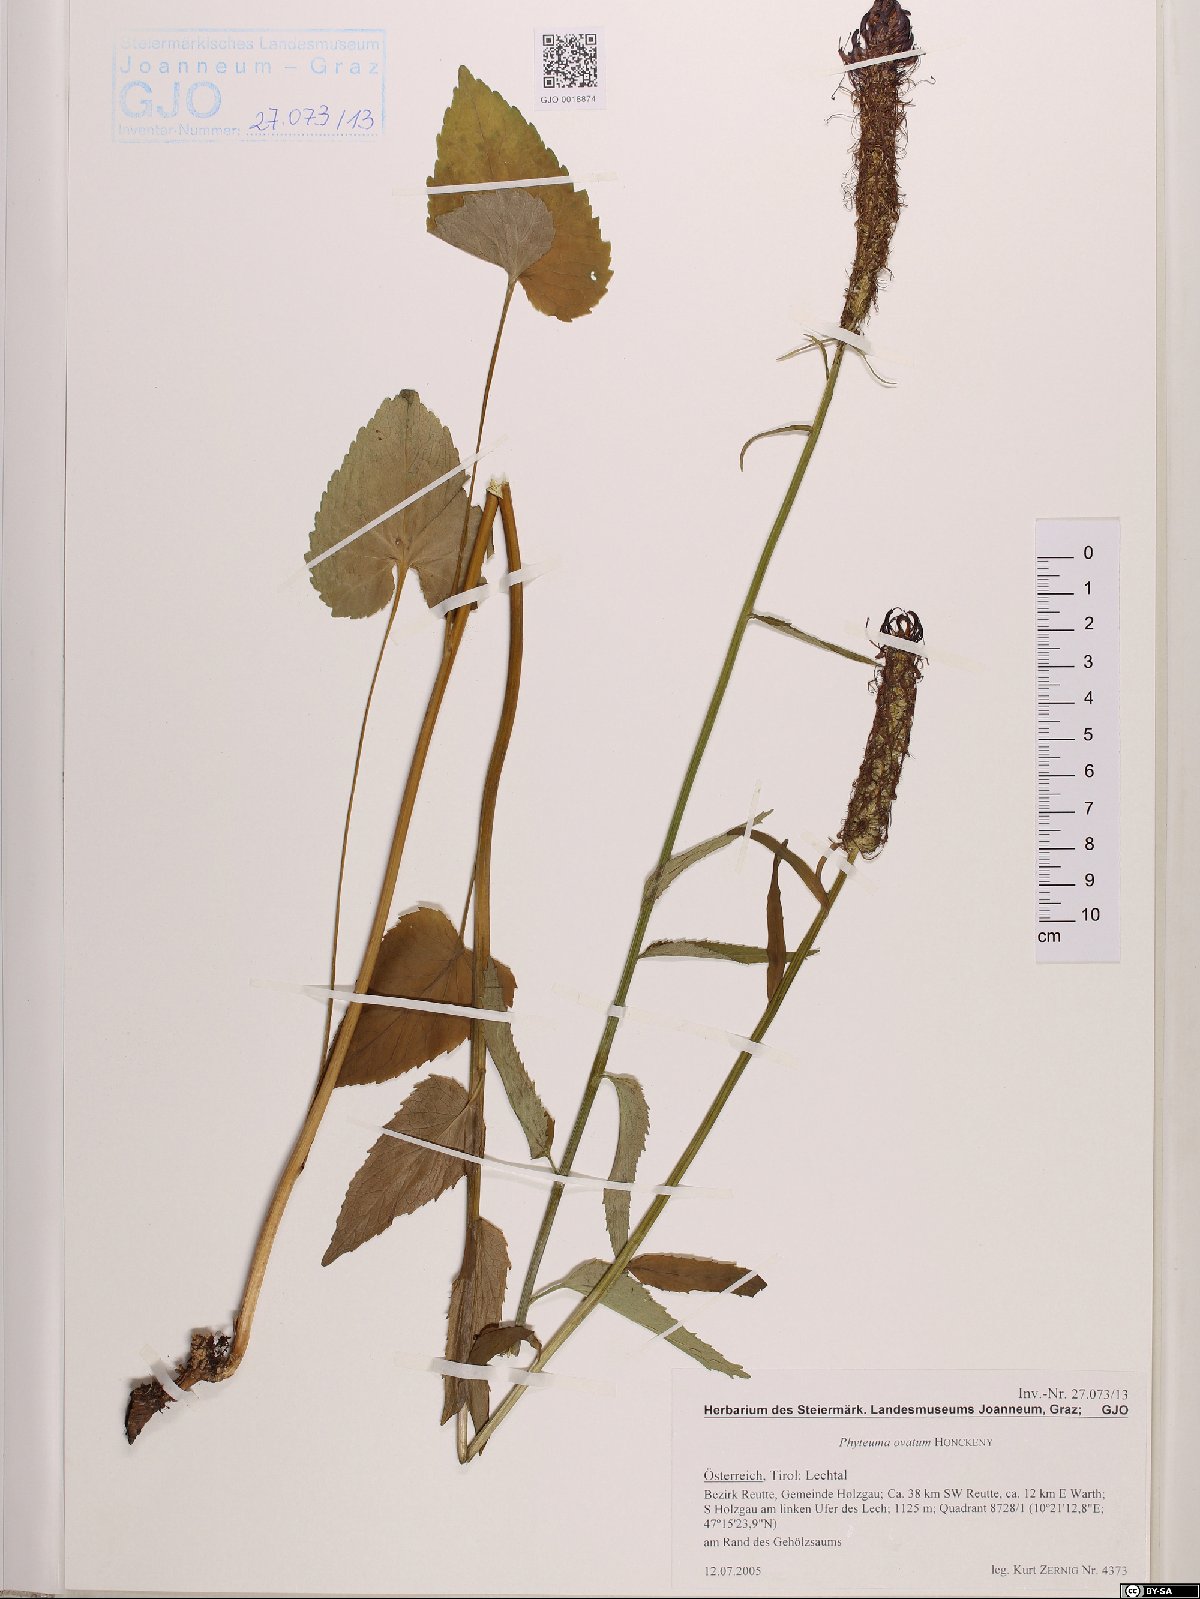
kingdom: Plantae
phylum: Tracheophyta
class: Magnoliopsida
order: Asterales
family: Campanulaceae
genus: Phyteuma
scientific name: Phyteuma ovatum
